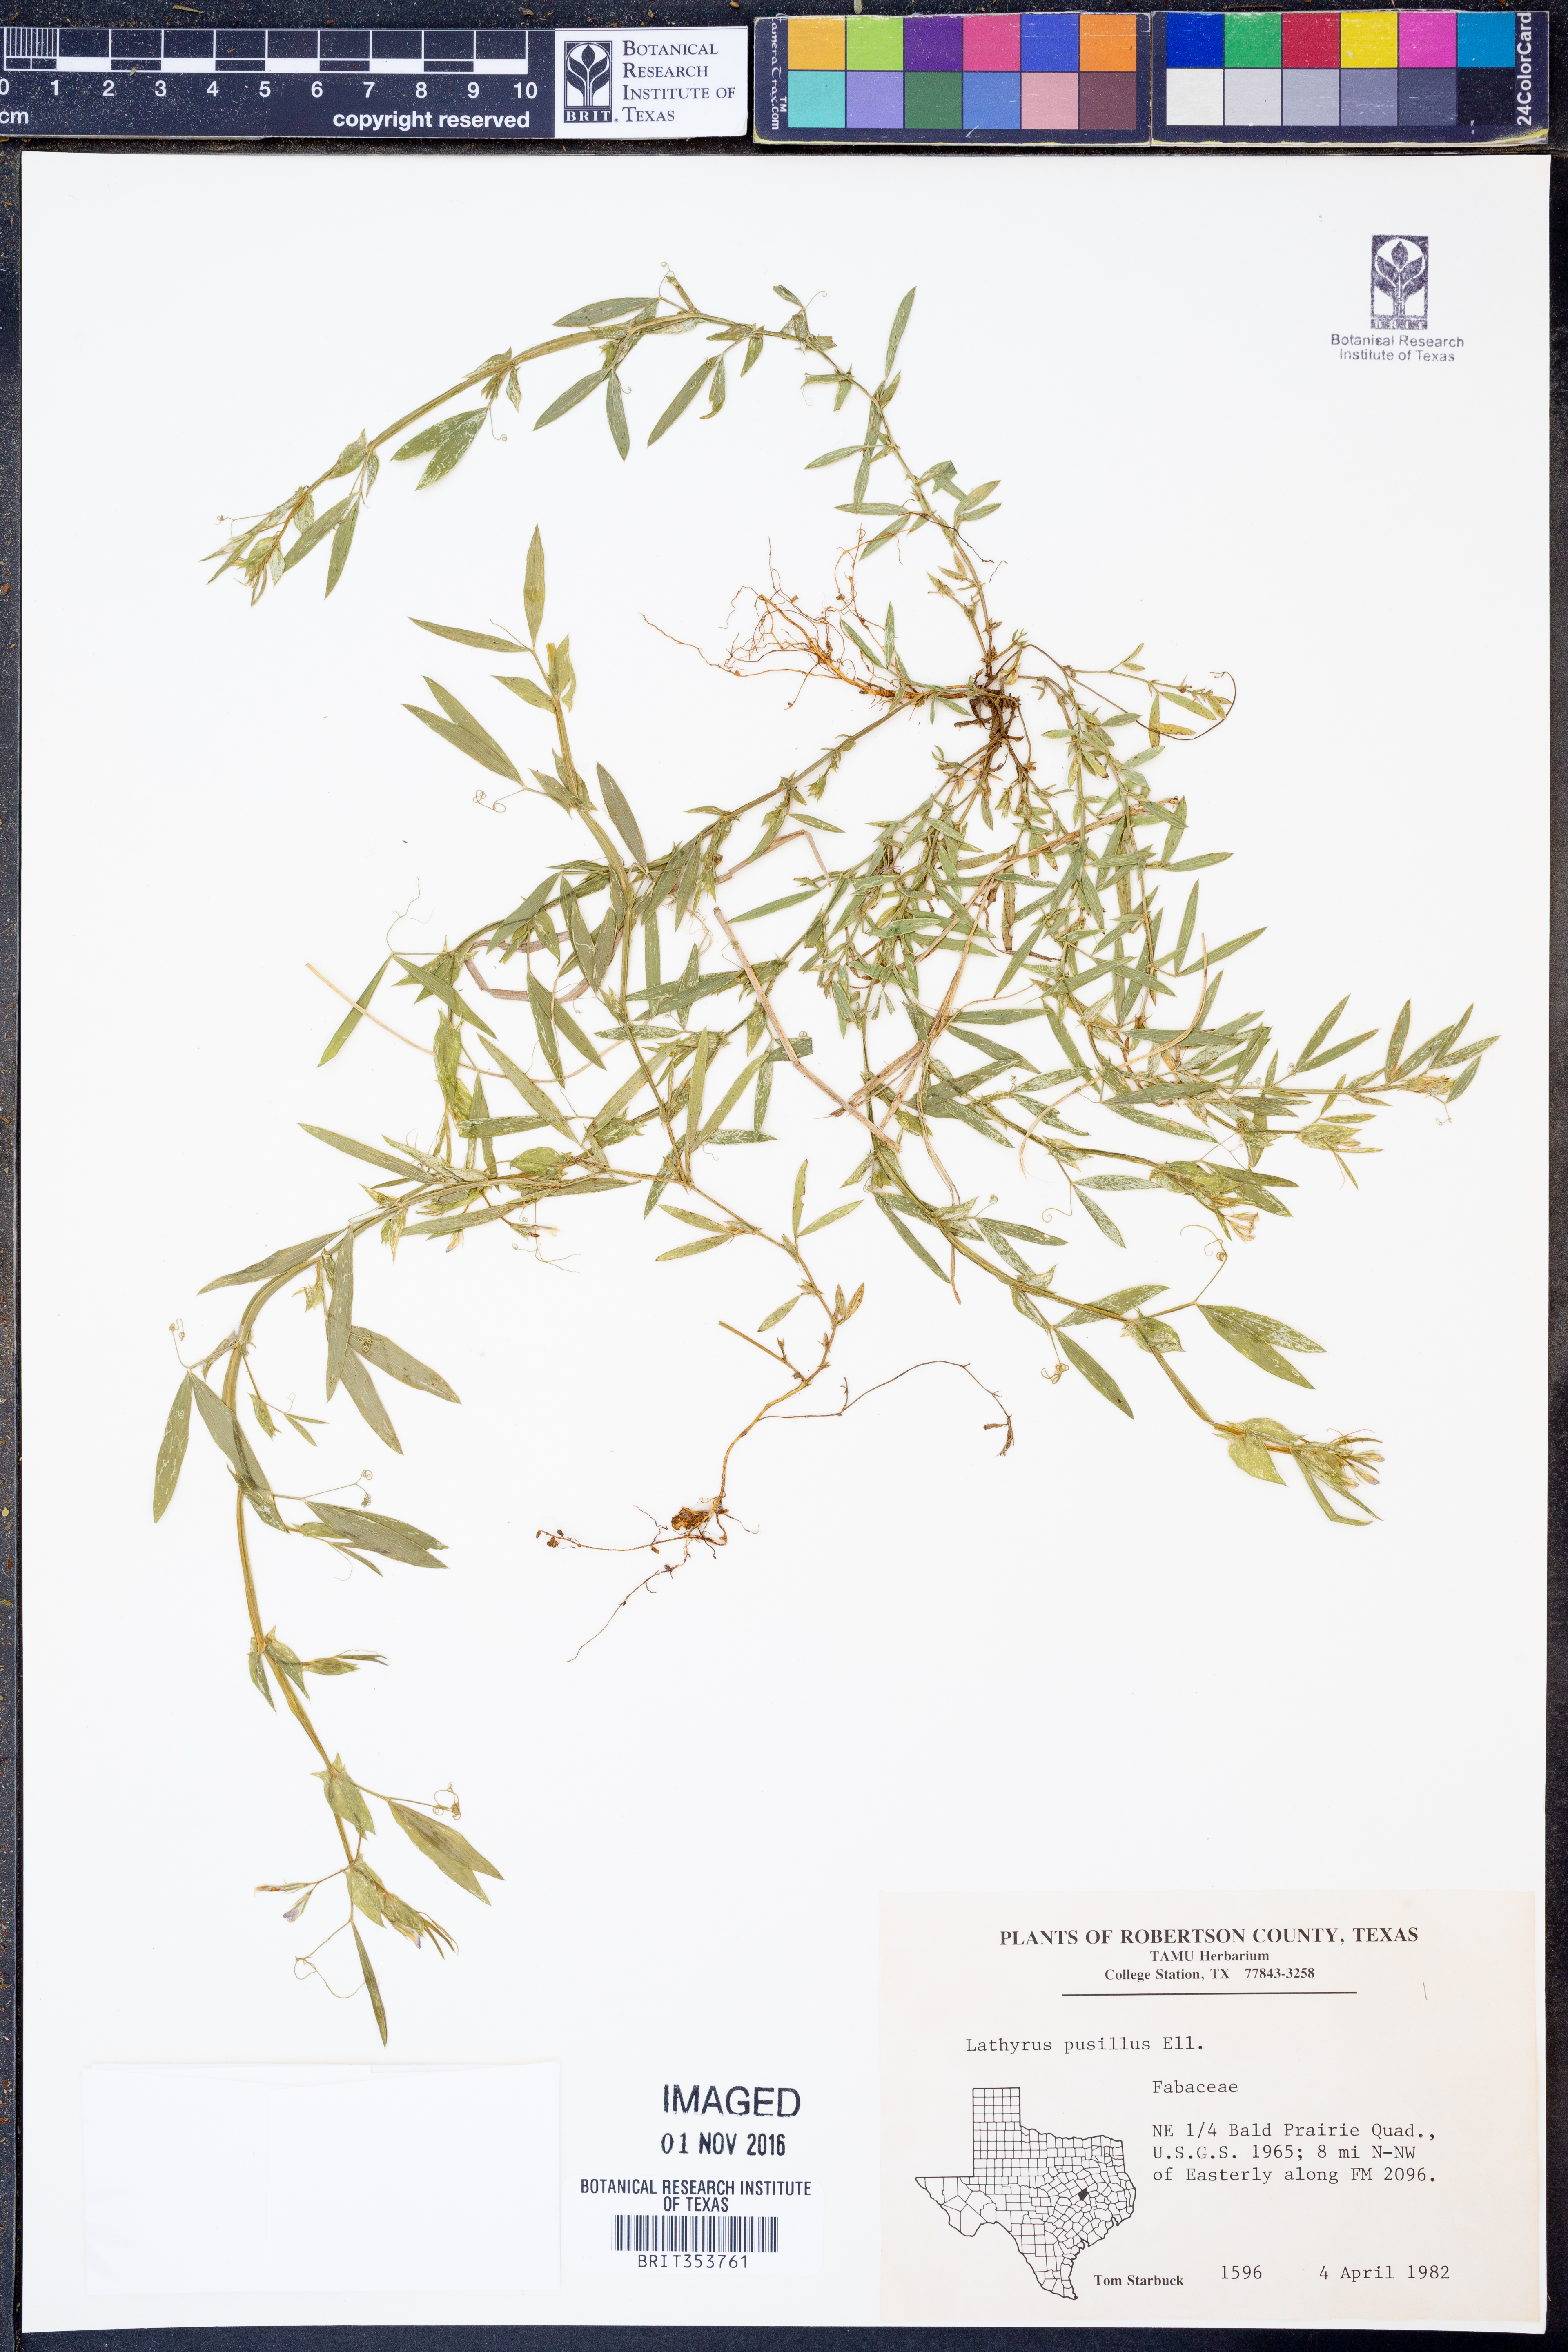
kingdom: Plantae
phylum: Tracheophyta
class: Magnoliopsida
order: Fabales
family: Fabaceae
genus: Lathyrus
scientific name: Lathyrus pusillus
